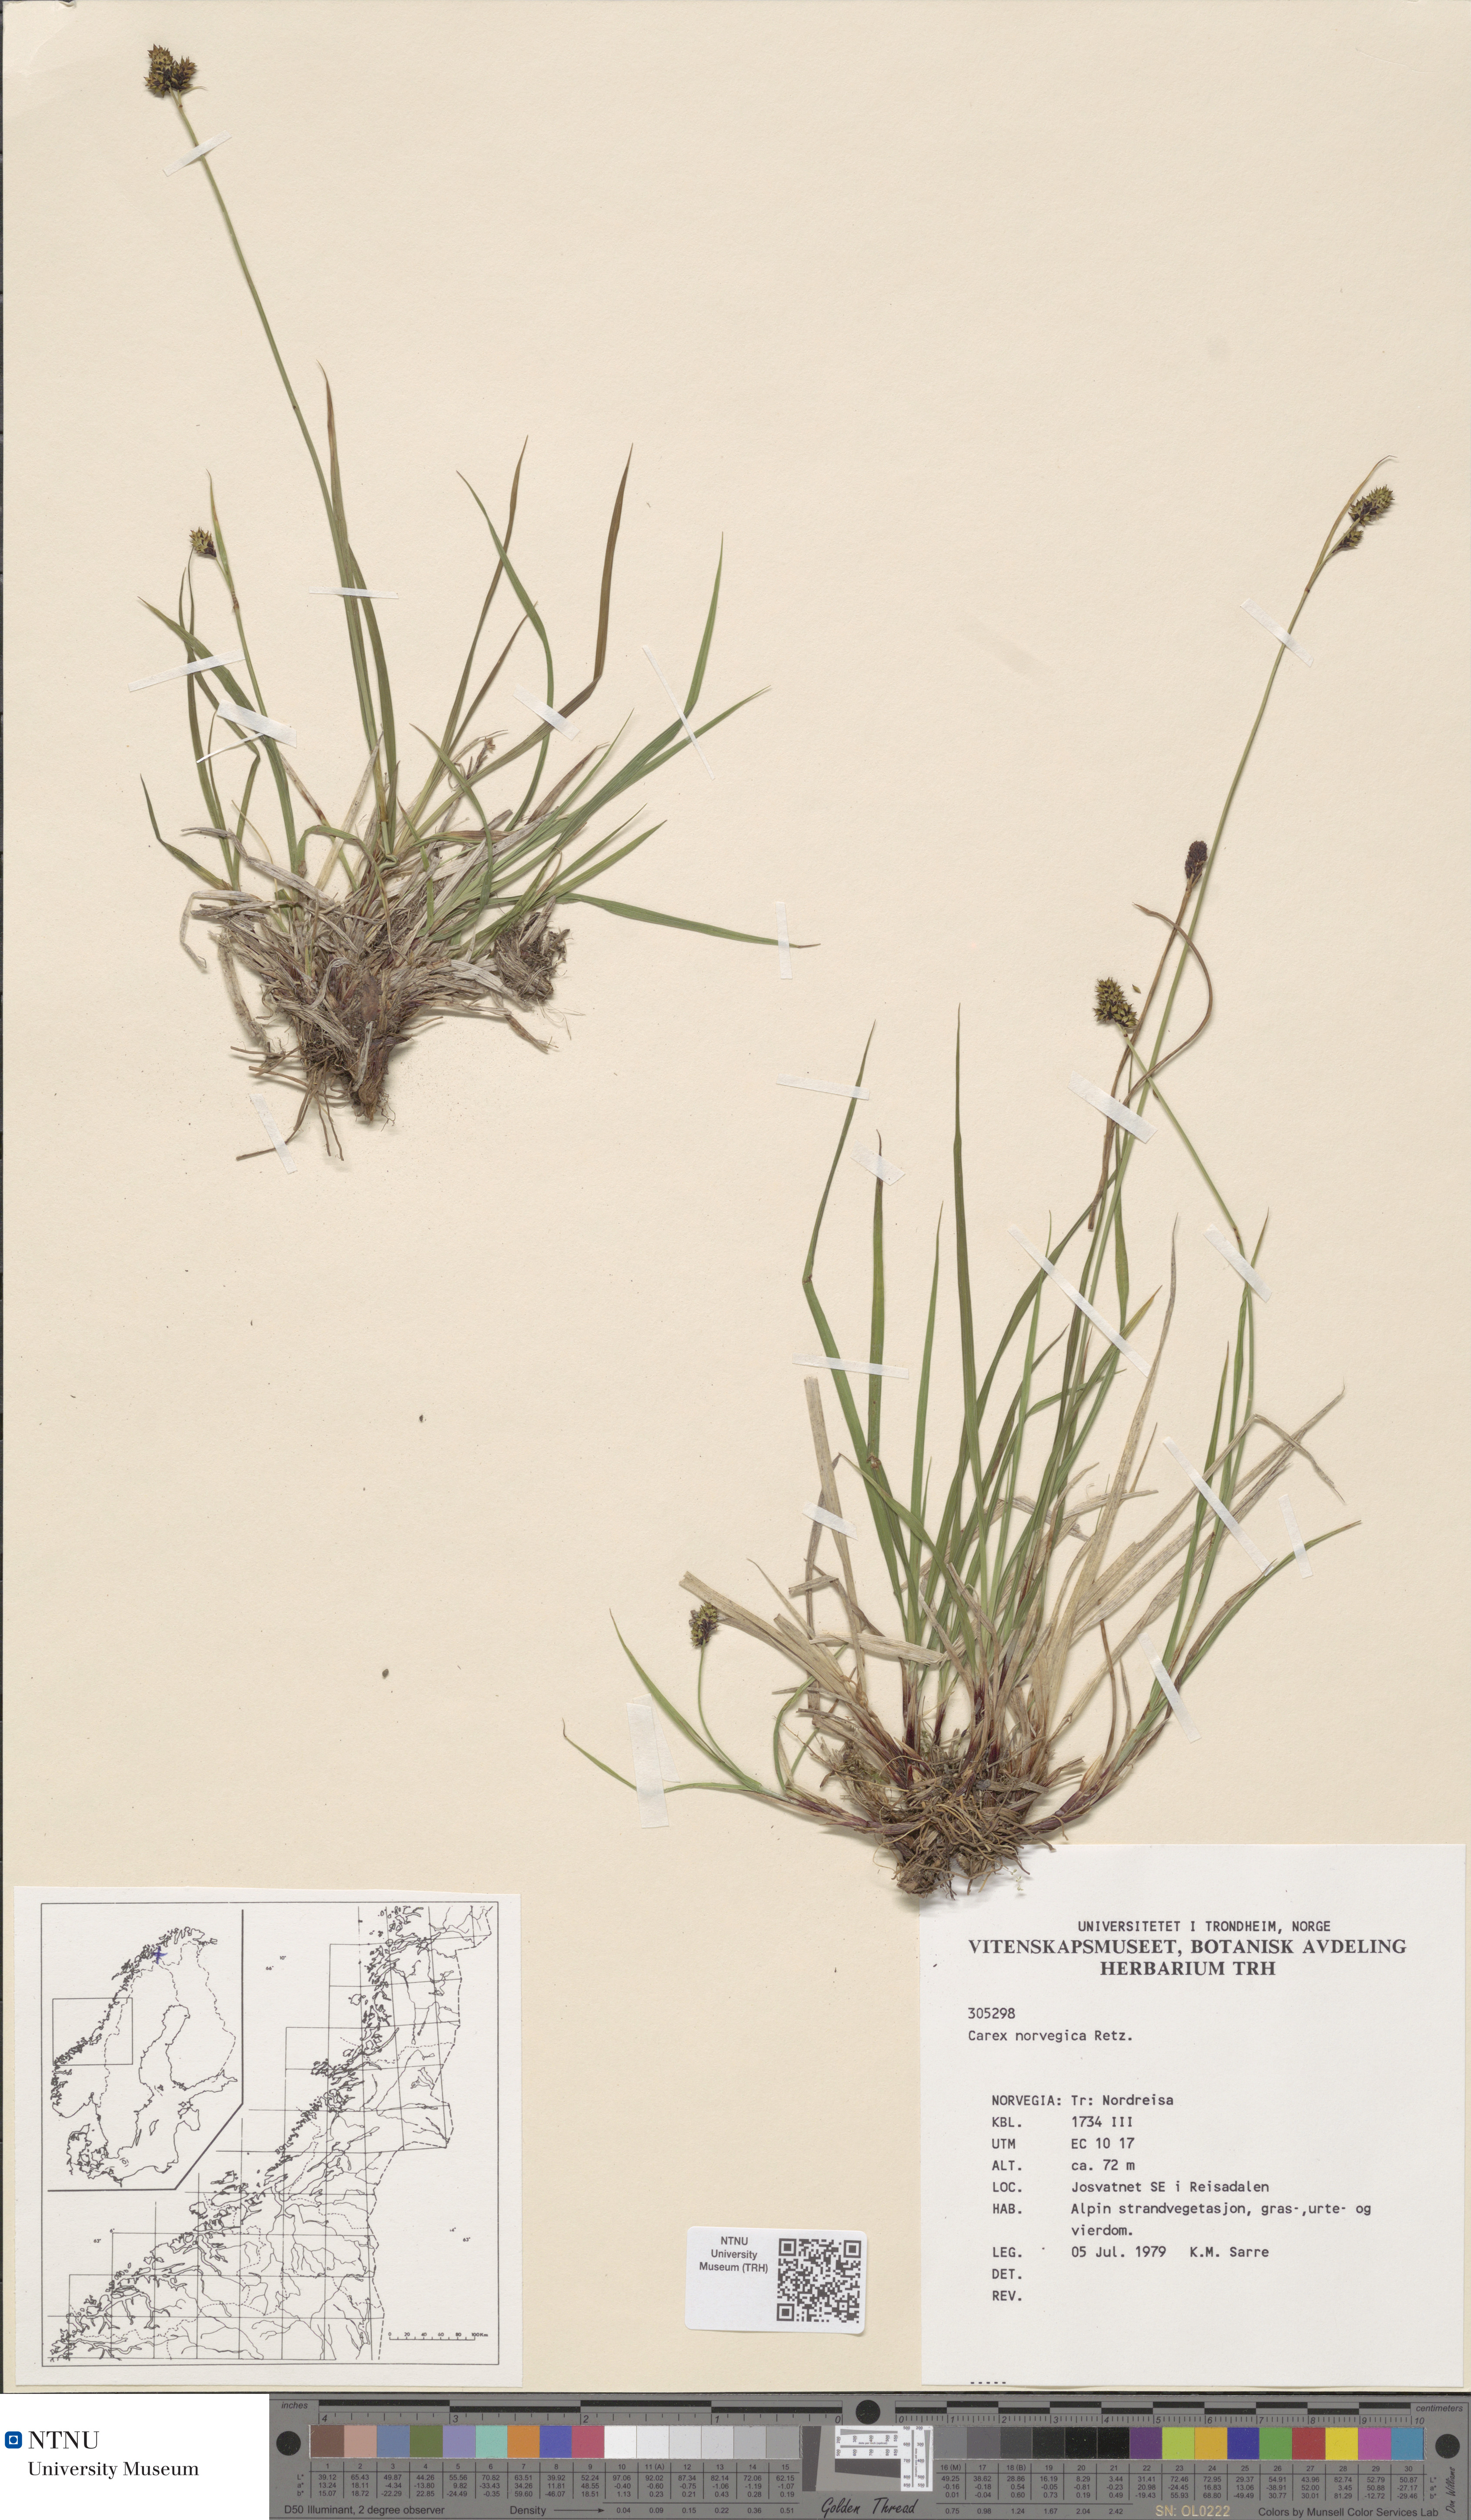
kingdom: Plantae
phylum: Tracheophyta
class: Liliopsida
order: Poales
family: Cyperaceae
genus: Carex
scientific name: Carex norvegica
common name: Close-headed alpine-sedge
